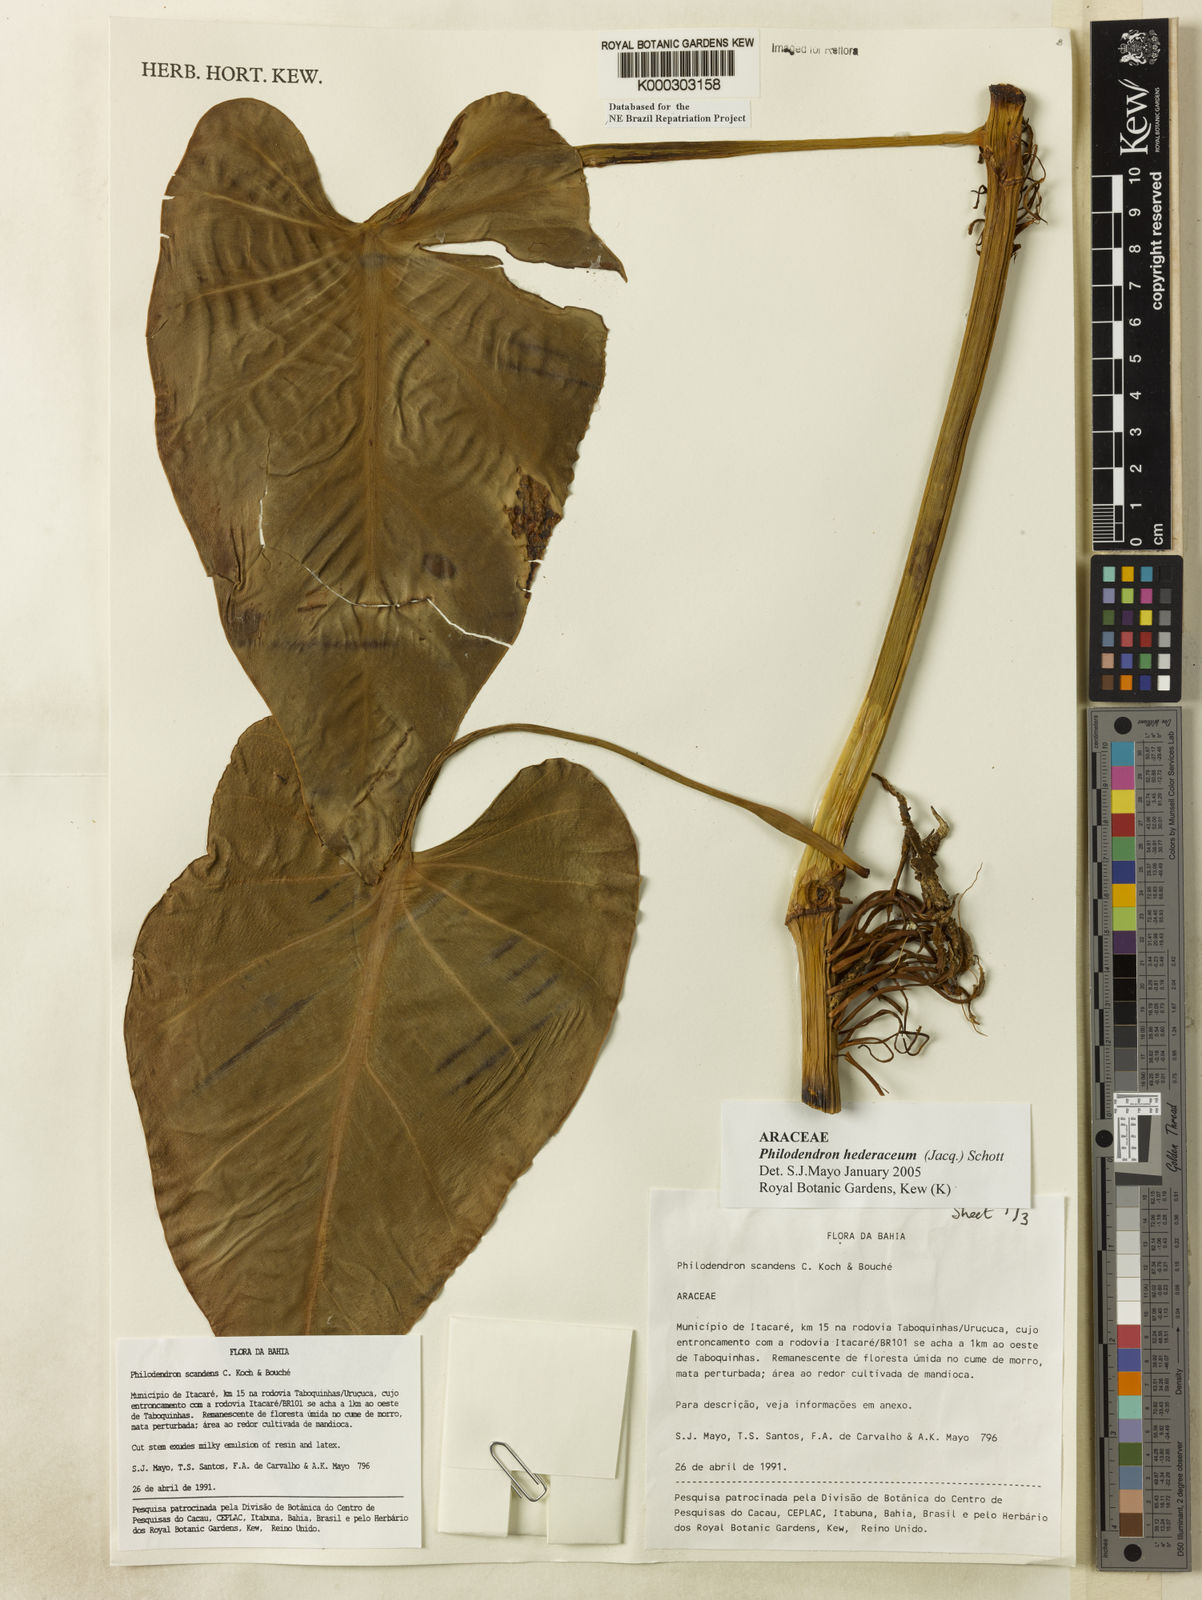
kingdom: Plantae
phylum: Tracheophyta
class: Liliopsida
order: Alismatales
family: Araceae
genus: Philodendron
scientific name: Philodendron hederaceum
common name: Vilevine
